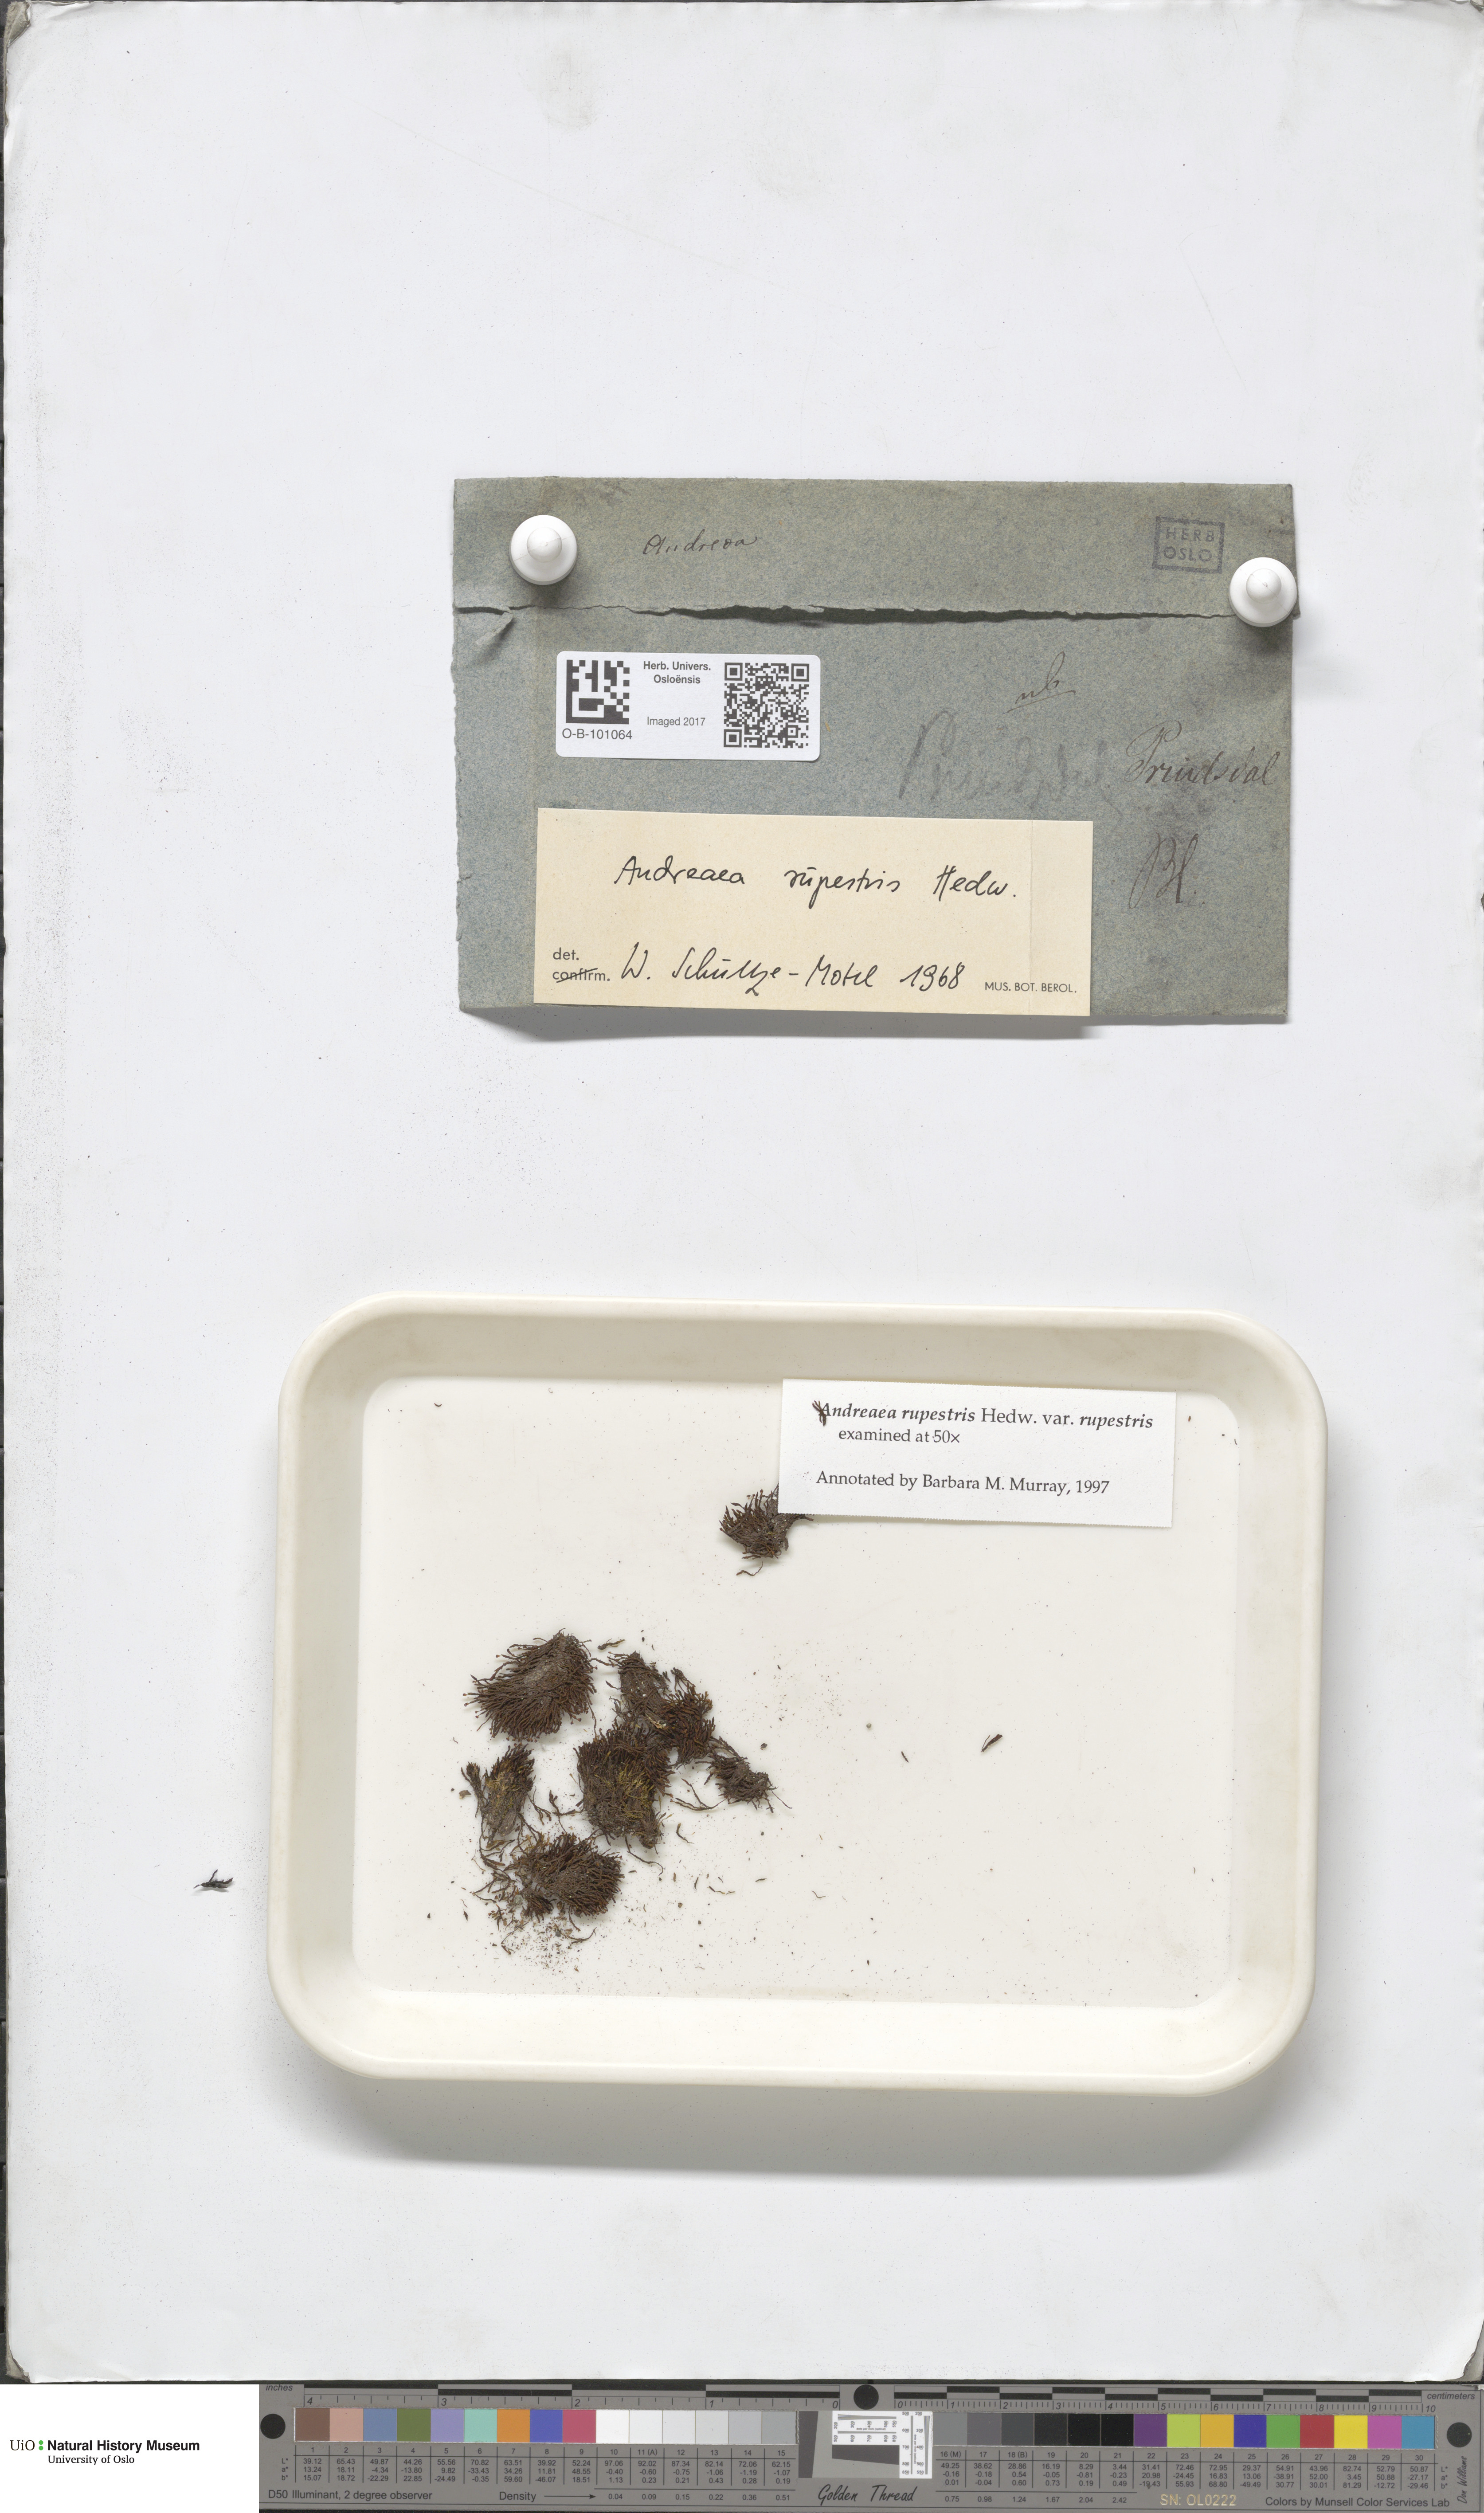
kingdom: Plantae
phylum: Bryophyta
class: Andreaeopsida
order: Andreaeales
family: Andreaeaceae
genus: Andreaea
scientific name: Andreaea rupestris
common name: Black rock moss
